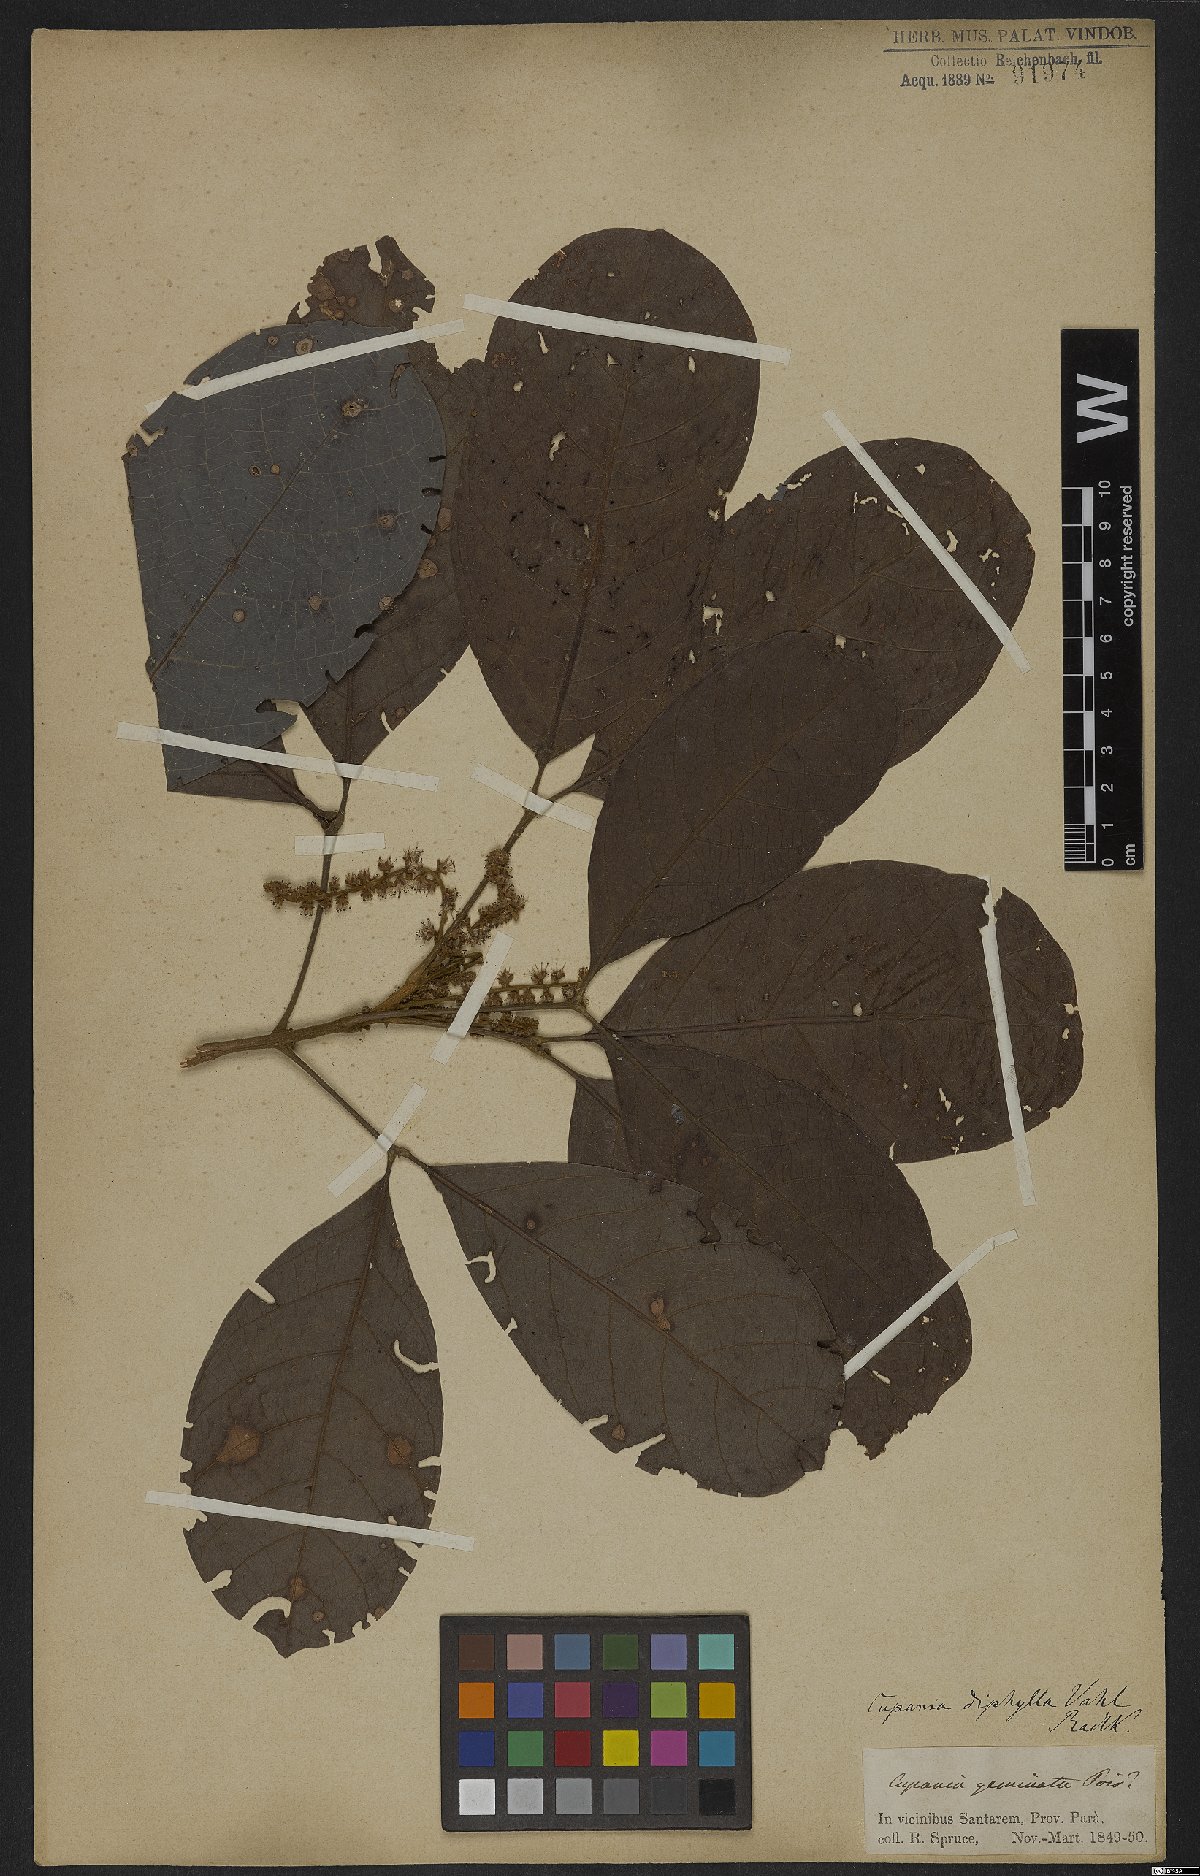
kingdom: Plantae
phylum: Tracheophyta
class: Magnoliopsida
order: Sapindales
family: Sapindaceae
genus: Cupania
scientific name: Cupania diphylla
